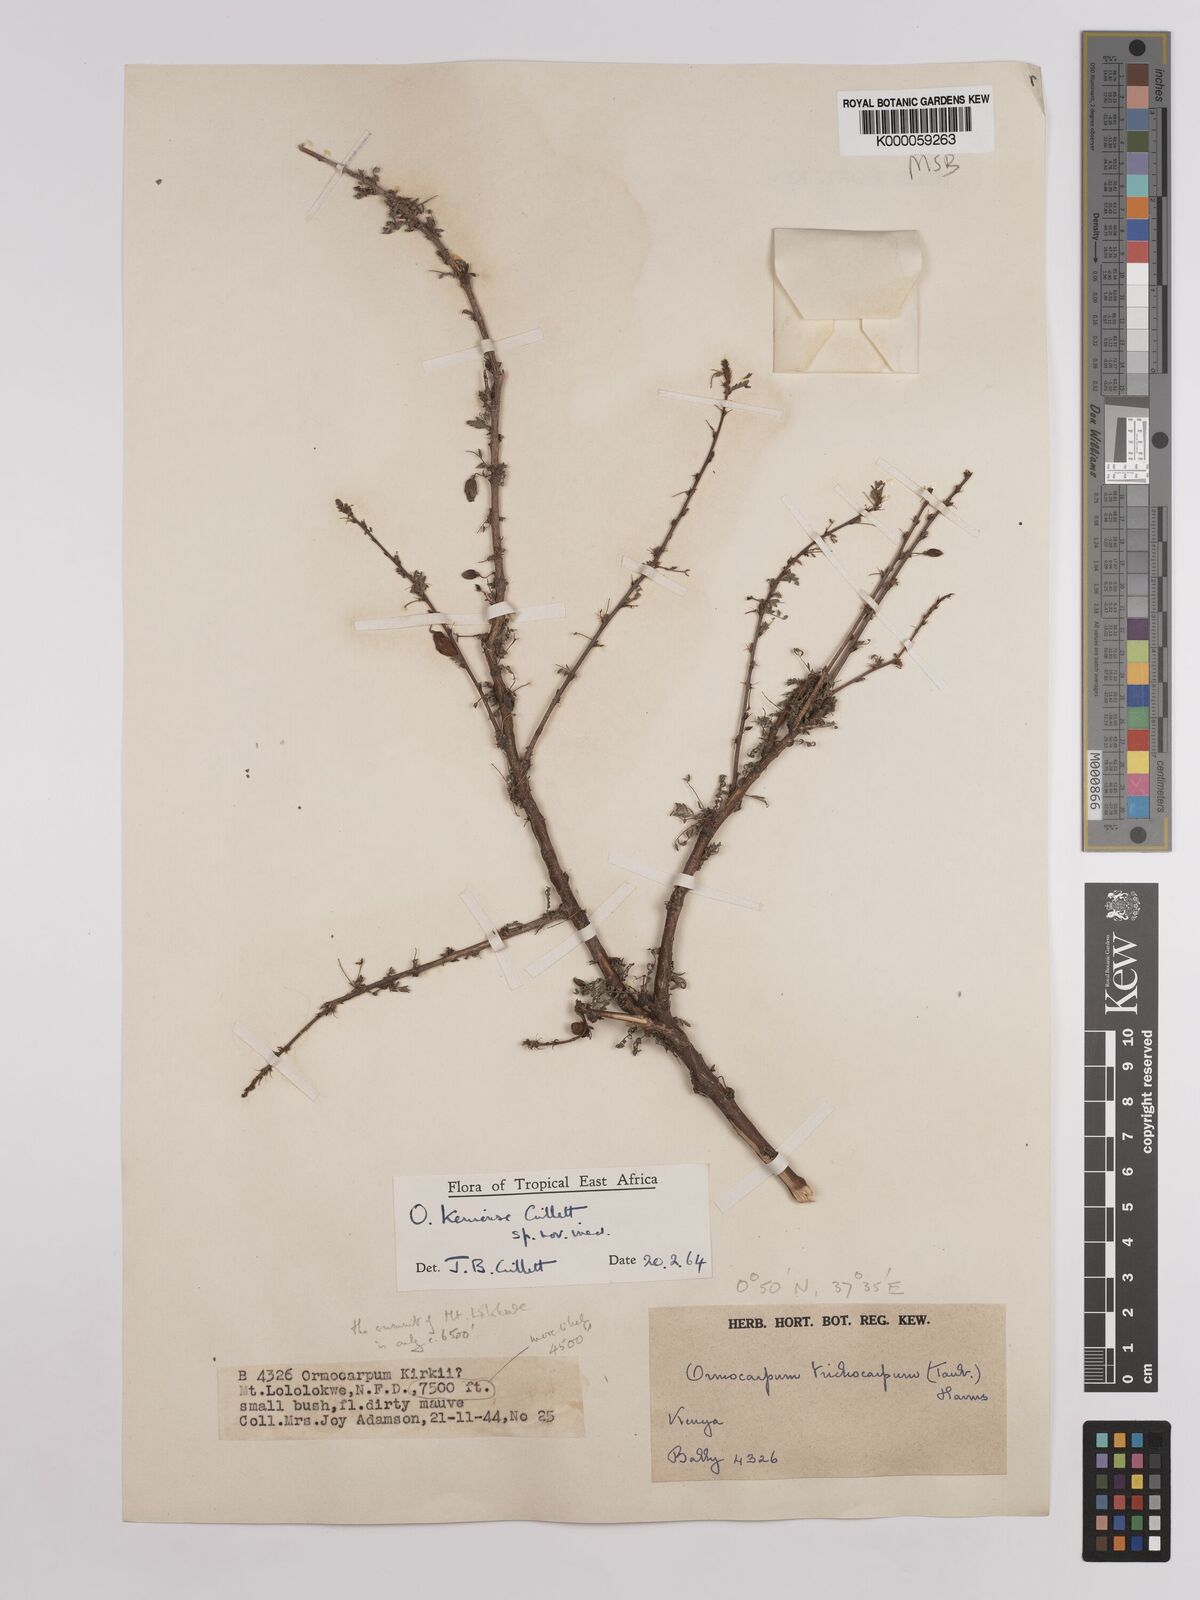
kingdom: Plantae
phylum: Tracheophyta
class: Magnoliopsida
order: Fabales
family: Fabaceae
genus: Ormocarpum
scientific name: Ormocarpum keniense
